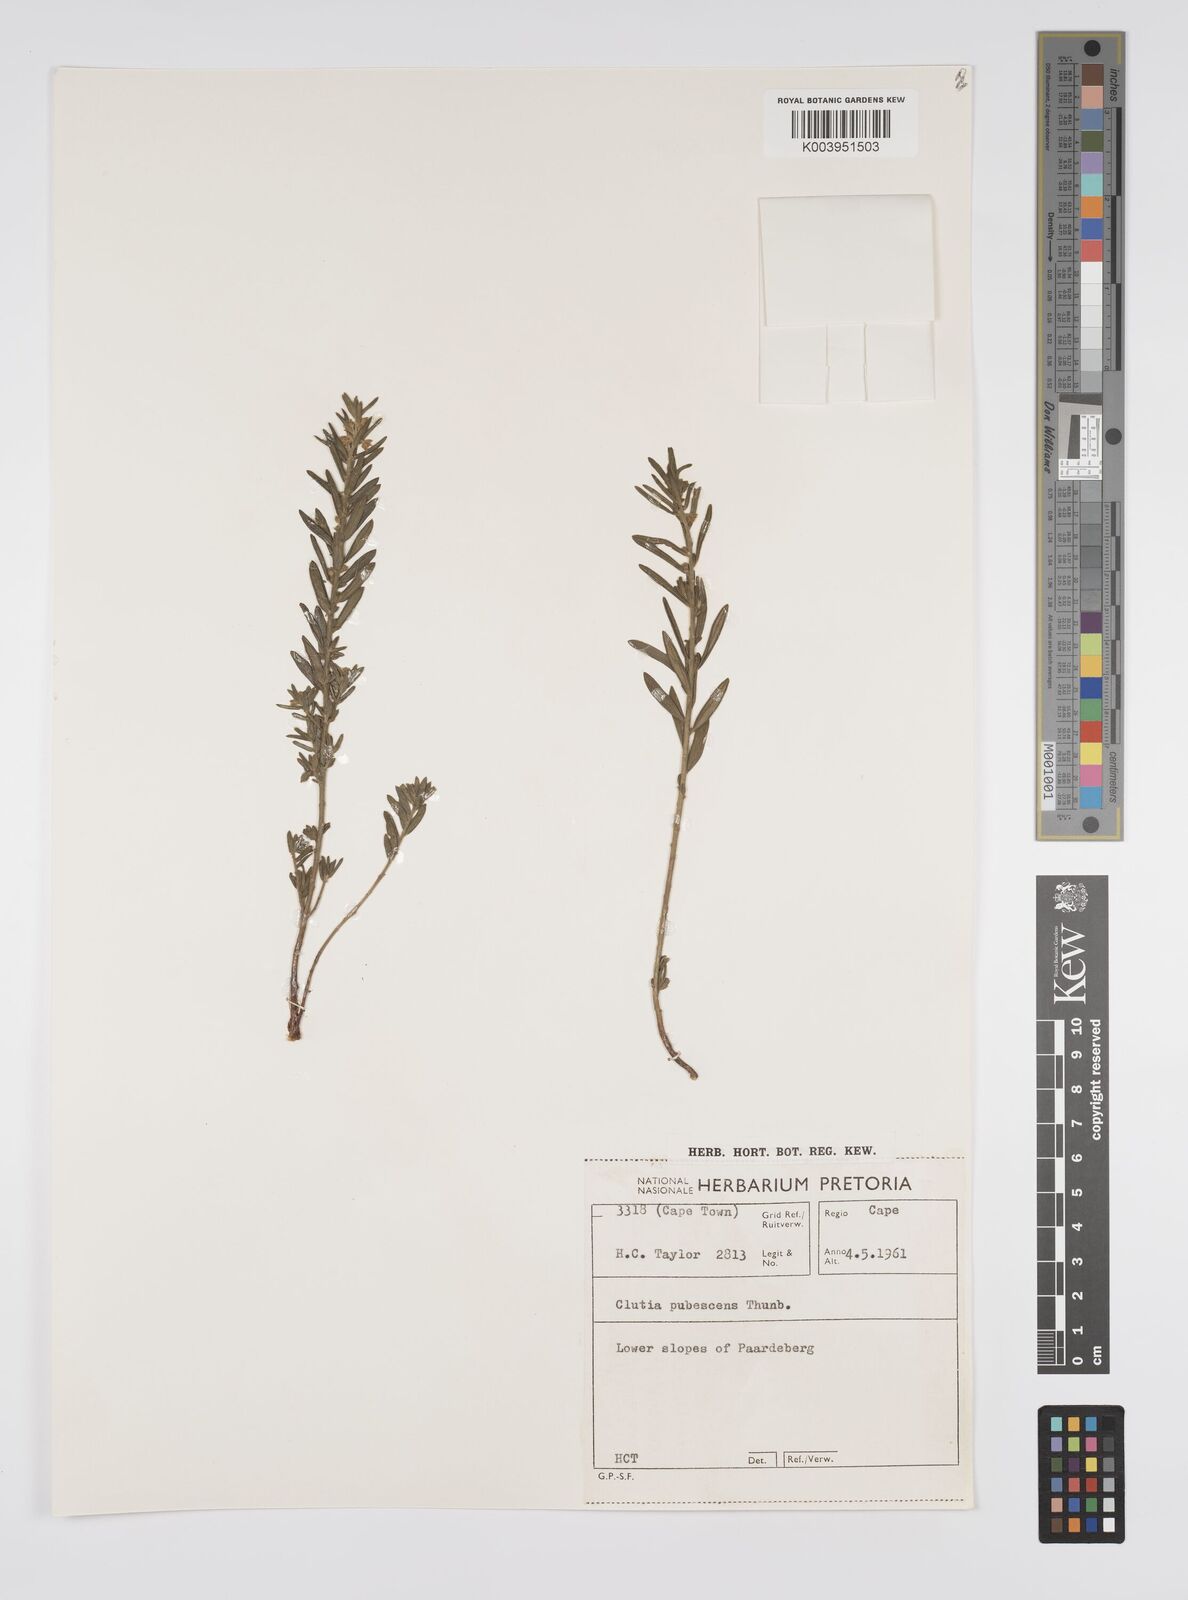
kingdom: Plantae
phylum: Tracheophyta
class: Magnoliopsida
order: Malpighiales
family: Peraceae
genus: Clutia
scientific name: Clutia
